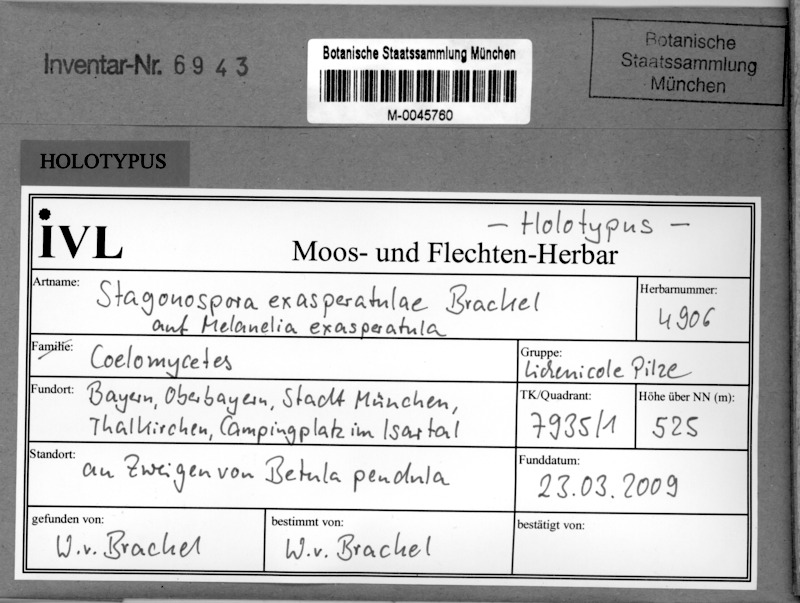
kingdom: Fungi
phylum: Ascomycota
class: Lecanoromycetes
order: Lecanorales
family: Parmeliaceae
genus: Melanohalea
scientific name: Melanohalea exasperatula
